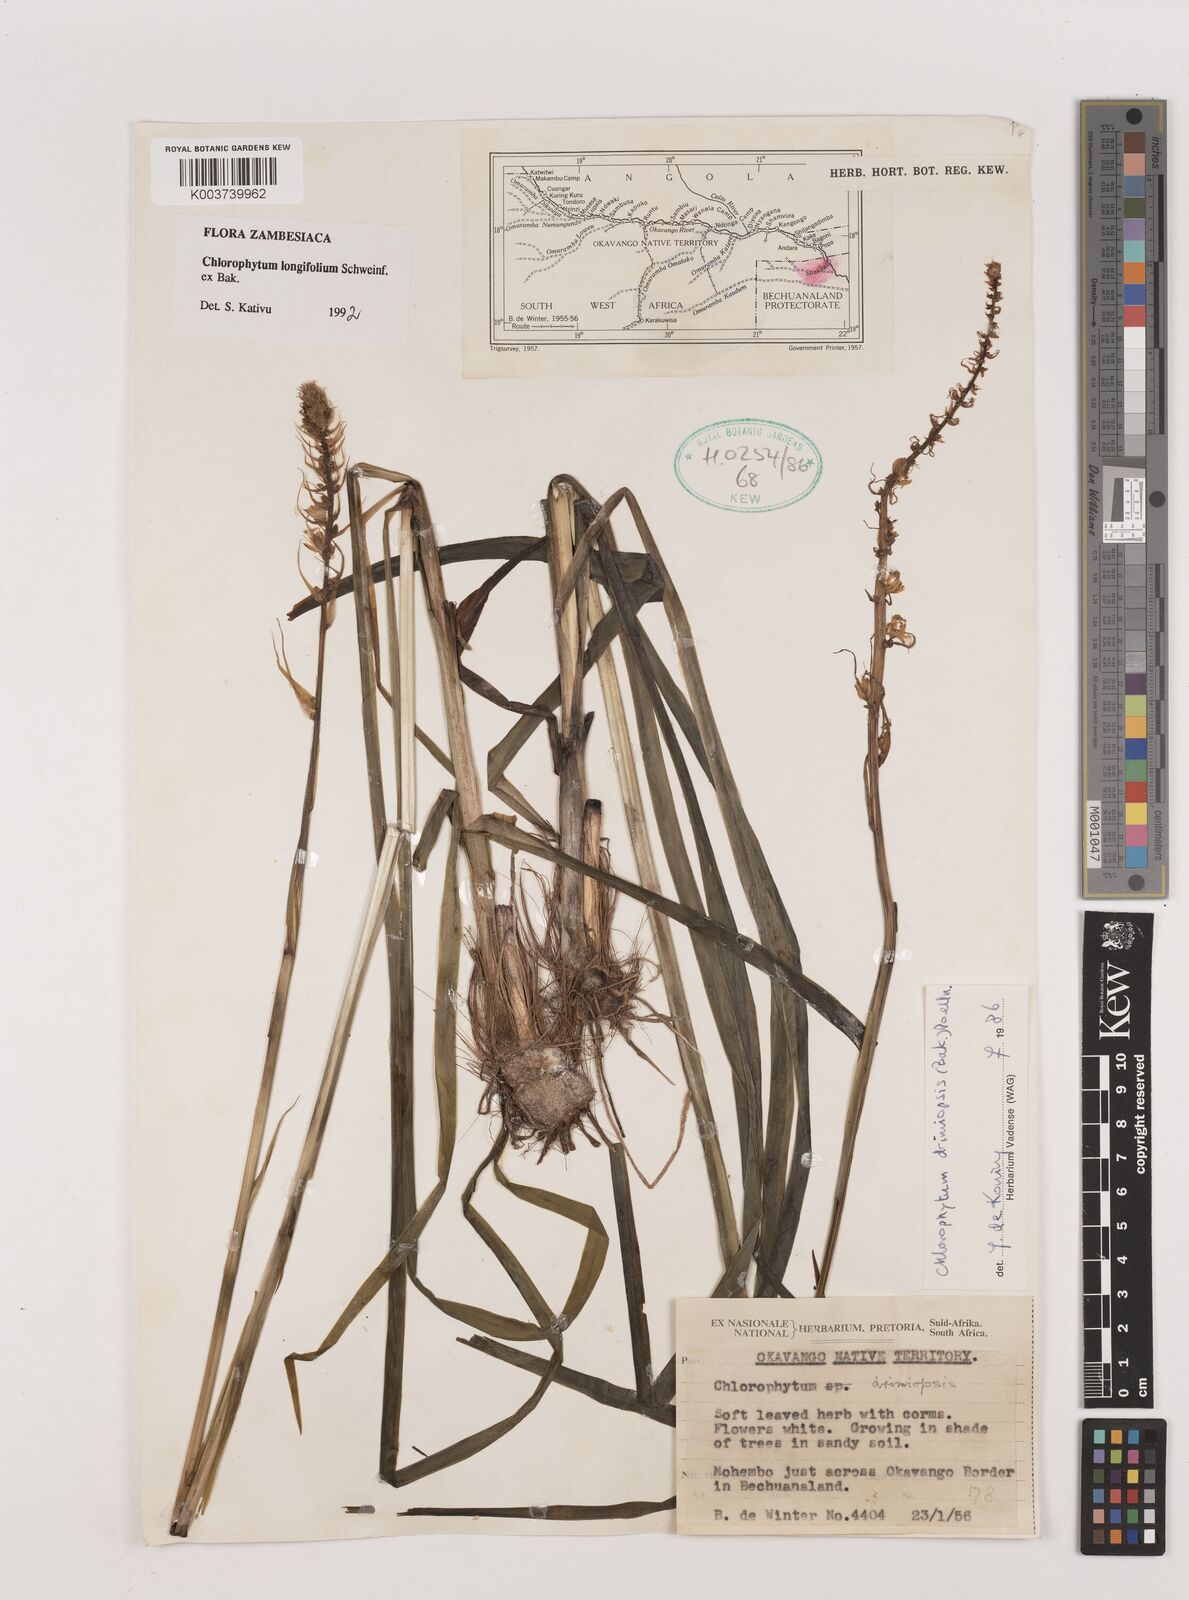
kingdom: Plantae
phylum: Tracheophyta
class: Liliopsida
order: Asparagales
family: Asparagaceae
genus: Chlorophytum
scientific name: Chlorophytum longifolium
